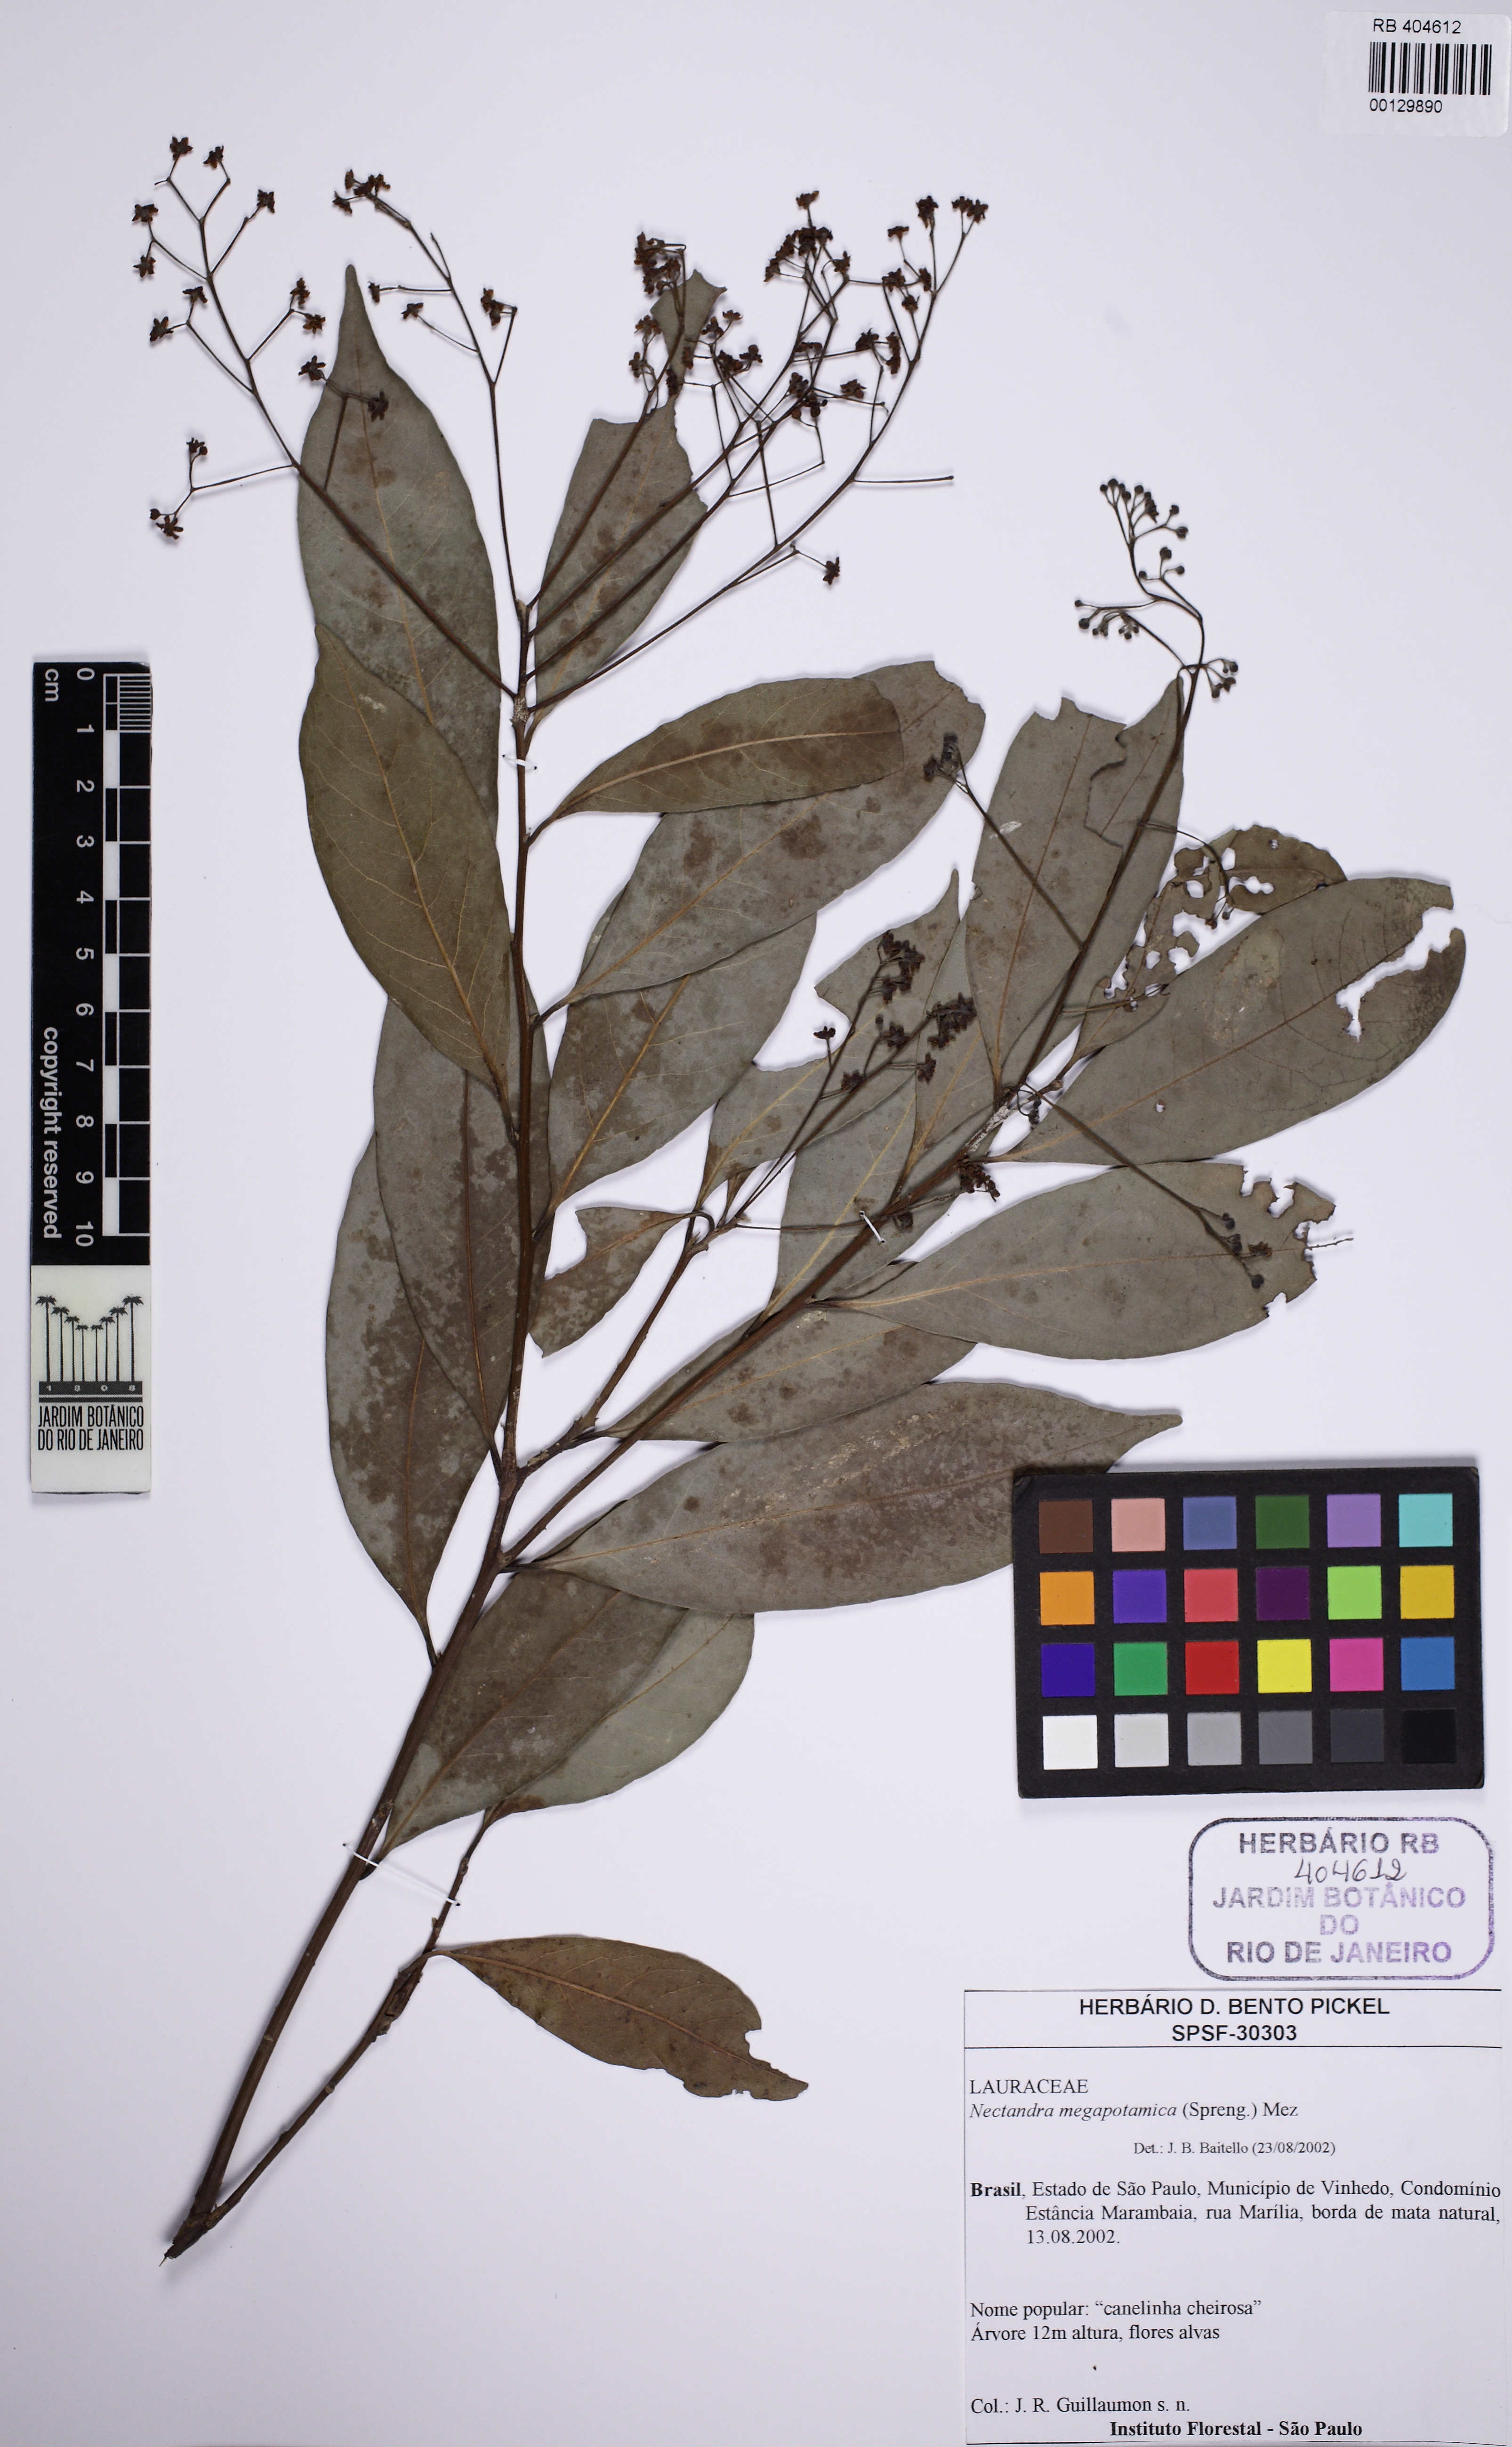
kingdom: Plantae
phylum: Tracheophyta
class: Magnoliopsida
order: Laurales
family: Lauraceae
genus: Nectandra
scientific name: Nectandra megapotamica
